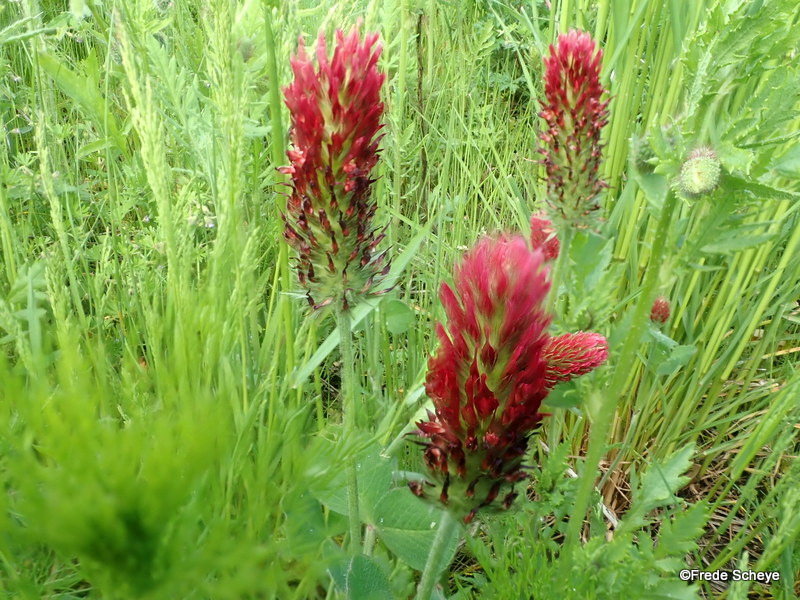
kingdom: Plantae
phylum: Tracheophyta
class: Magnoliopsida
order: Fabales
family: Fabaceae
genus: Trifolium
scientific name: Trifolium incarnatum
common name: Blod-kløver
